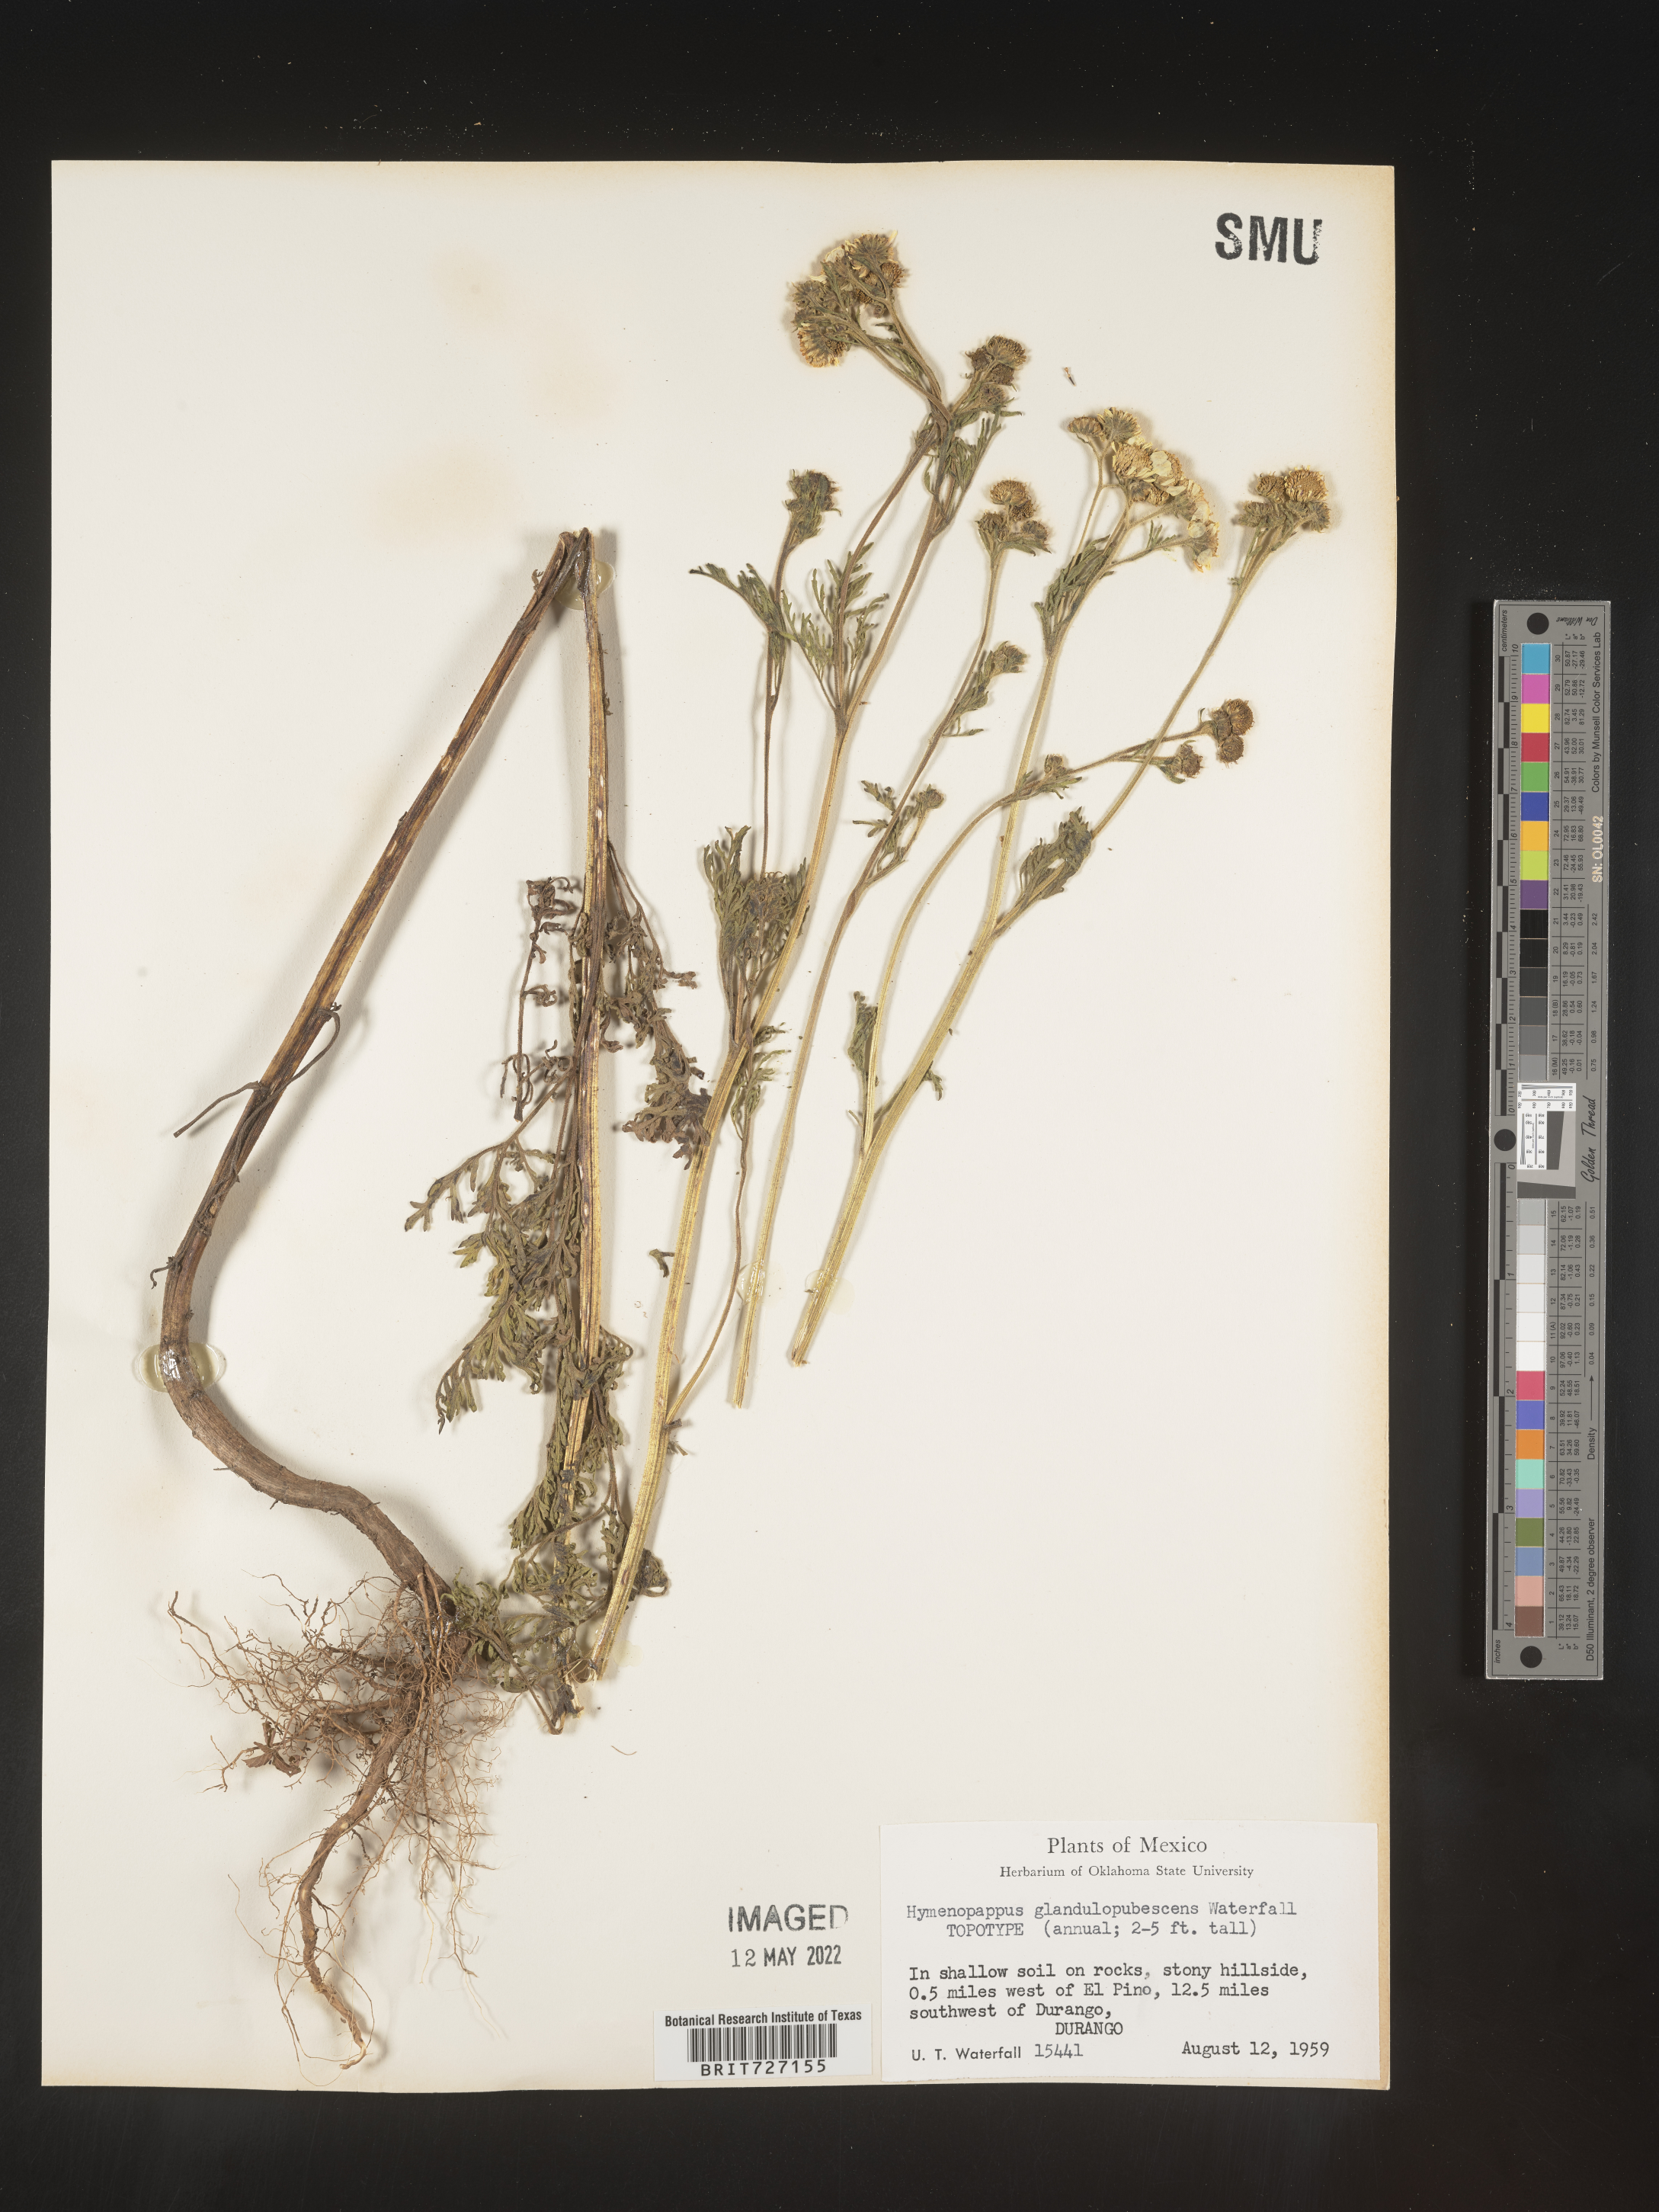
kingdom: Plantae
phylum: Tracheophyta
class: Magnoliopsida
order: Asterales
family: Asteraceae
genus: Hymenopappus
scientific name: Hymenopappus
